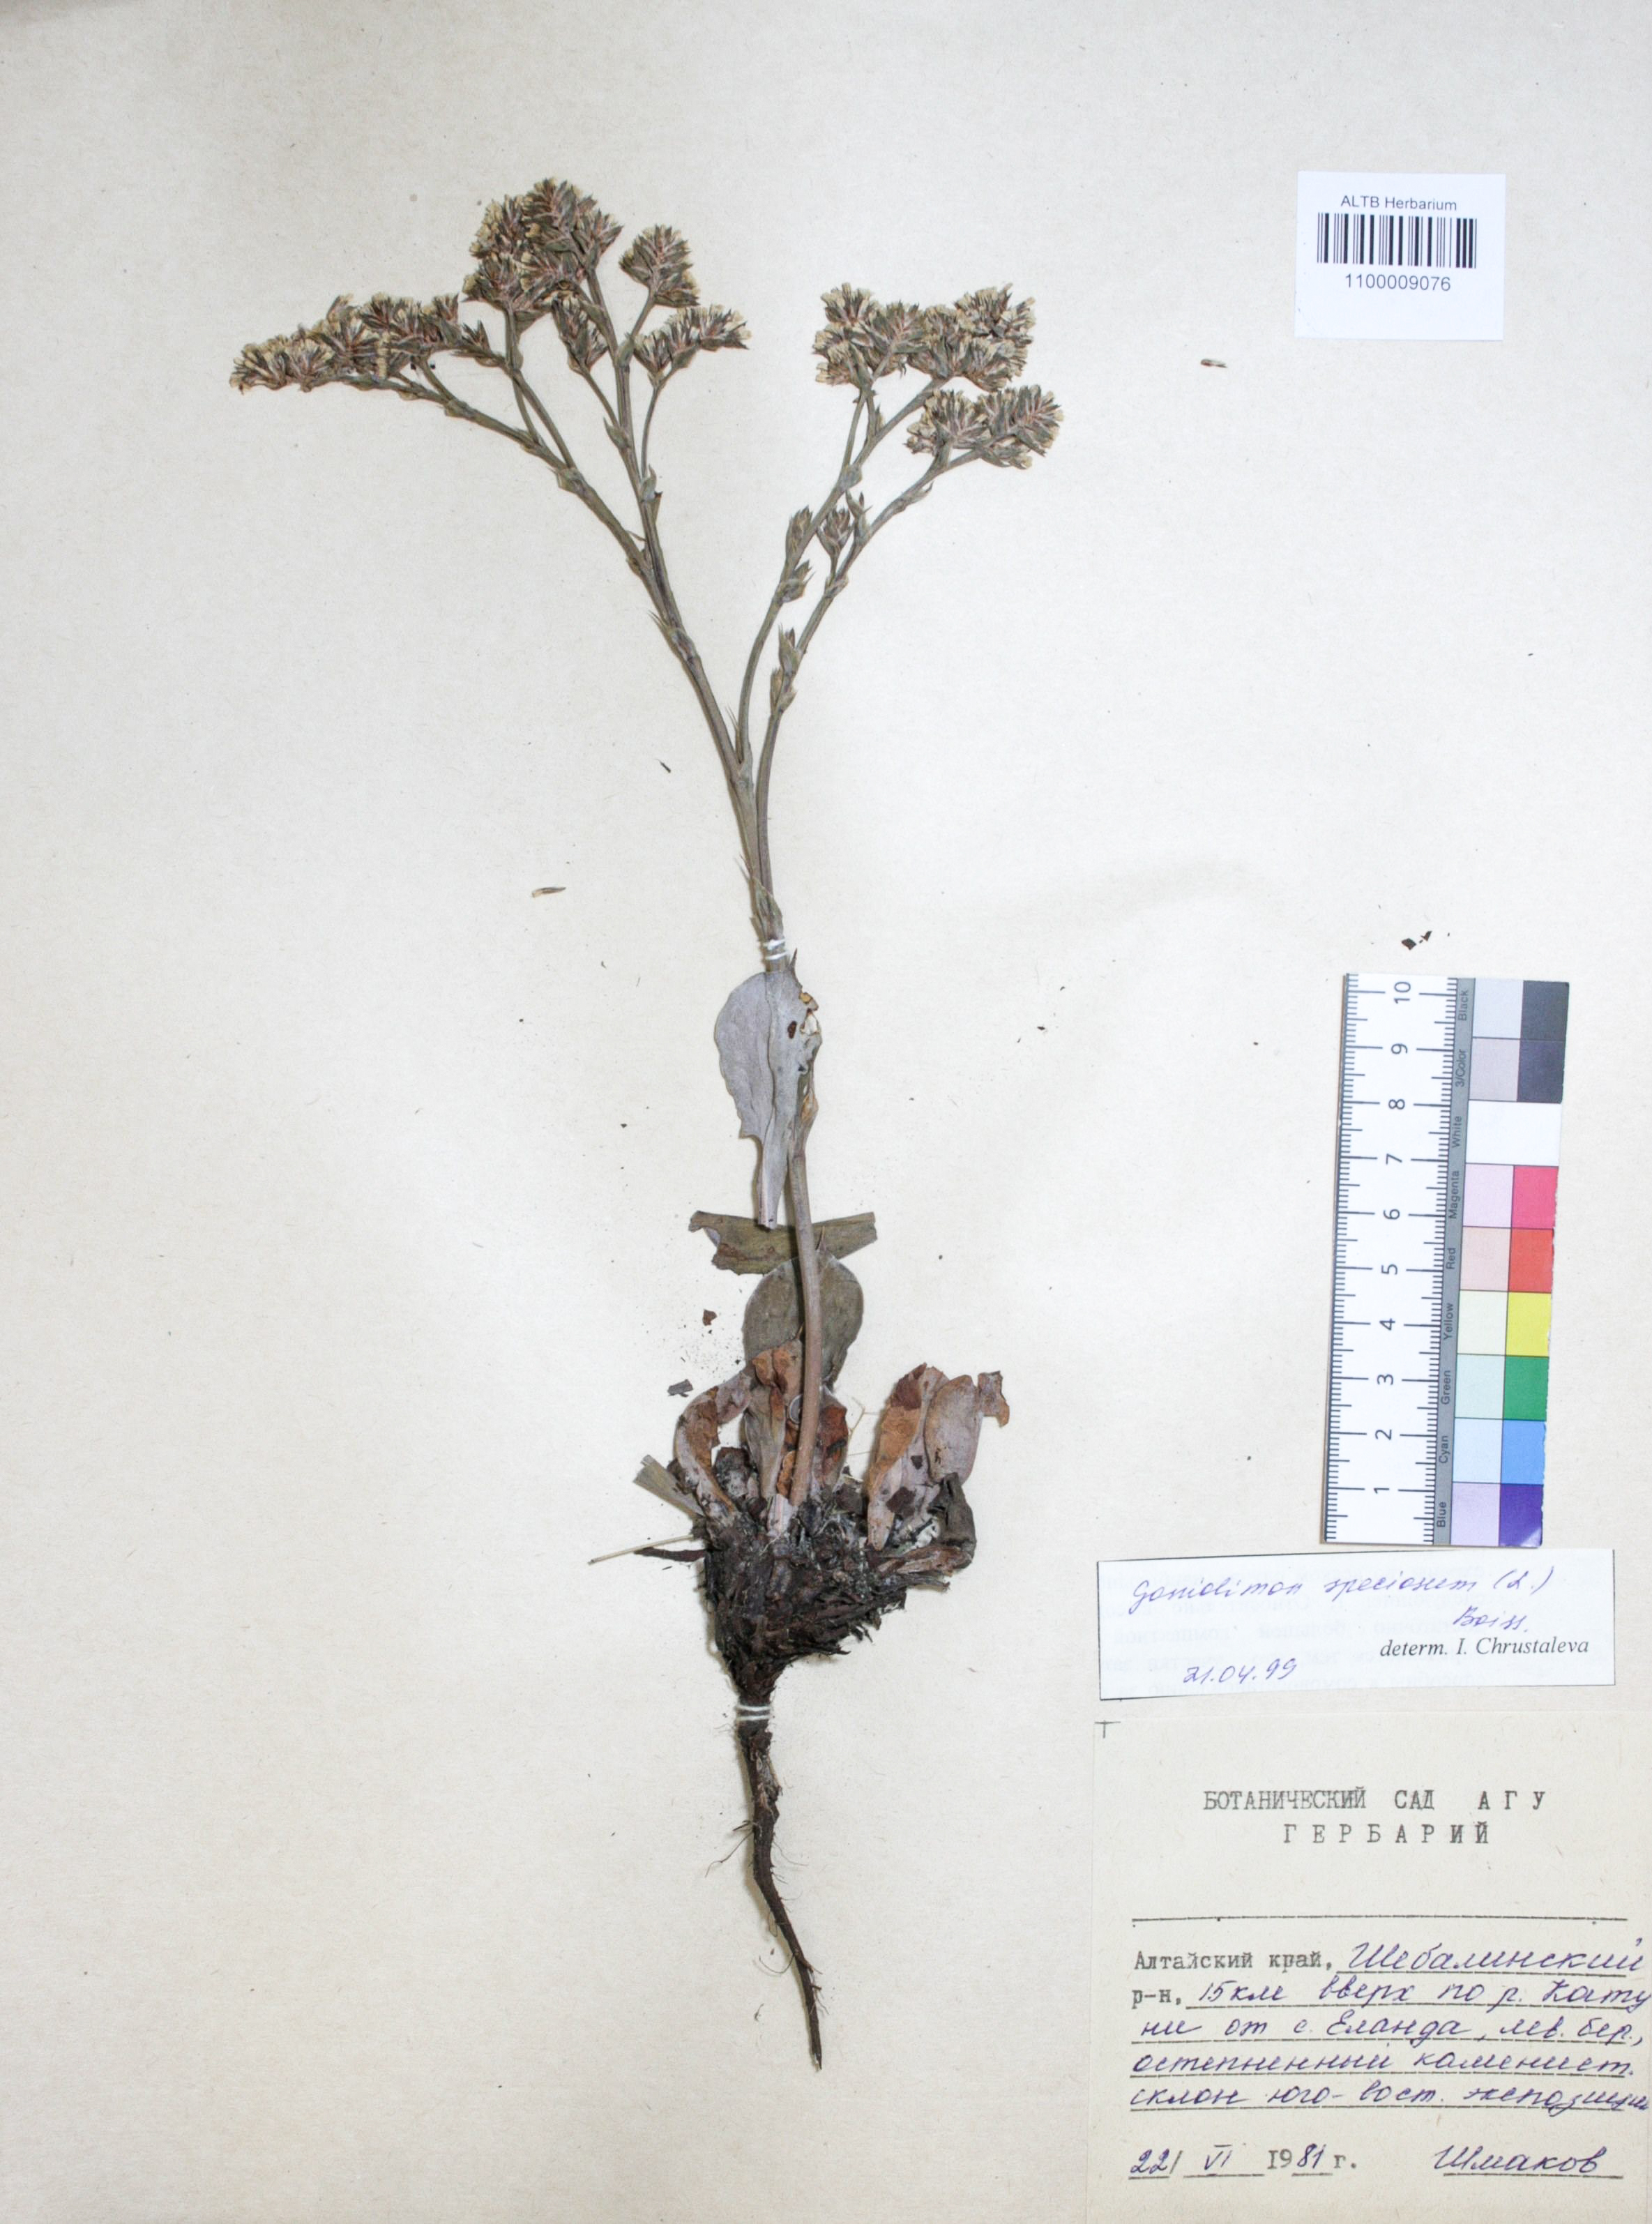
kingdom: Plantae
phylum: Tracheophyta
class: Magnoliopsida
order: Caryophyllales
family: Plumbaginaceae
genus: Goniolimon
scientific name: Goniolimon speciosum
